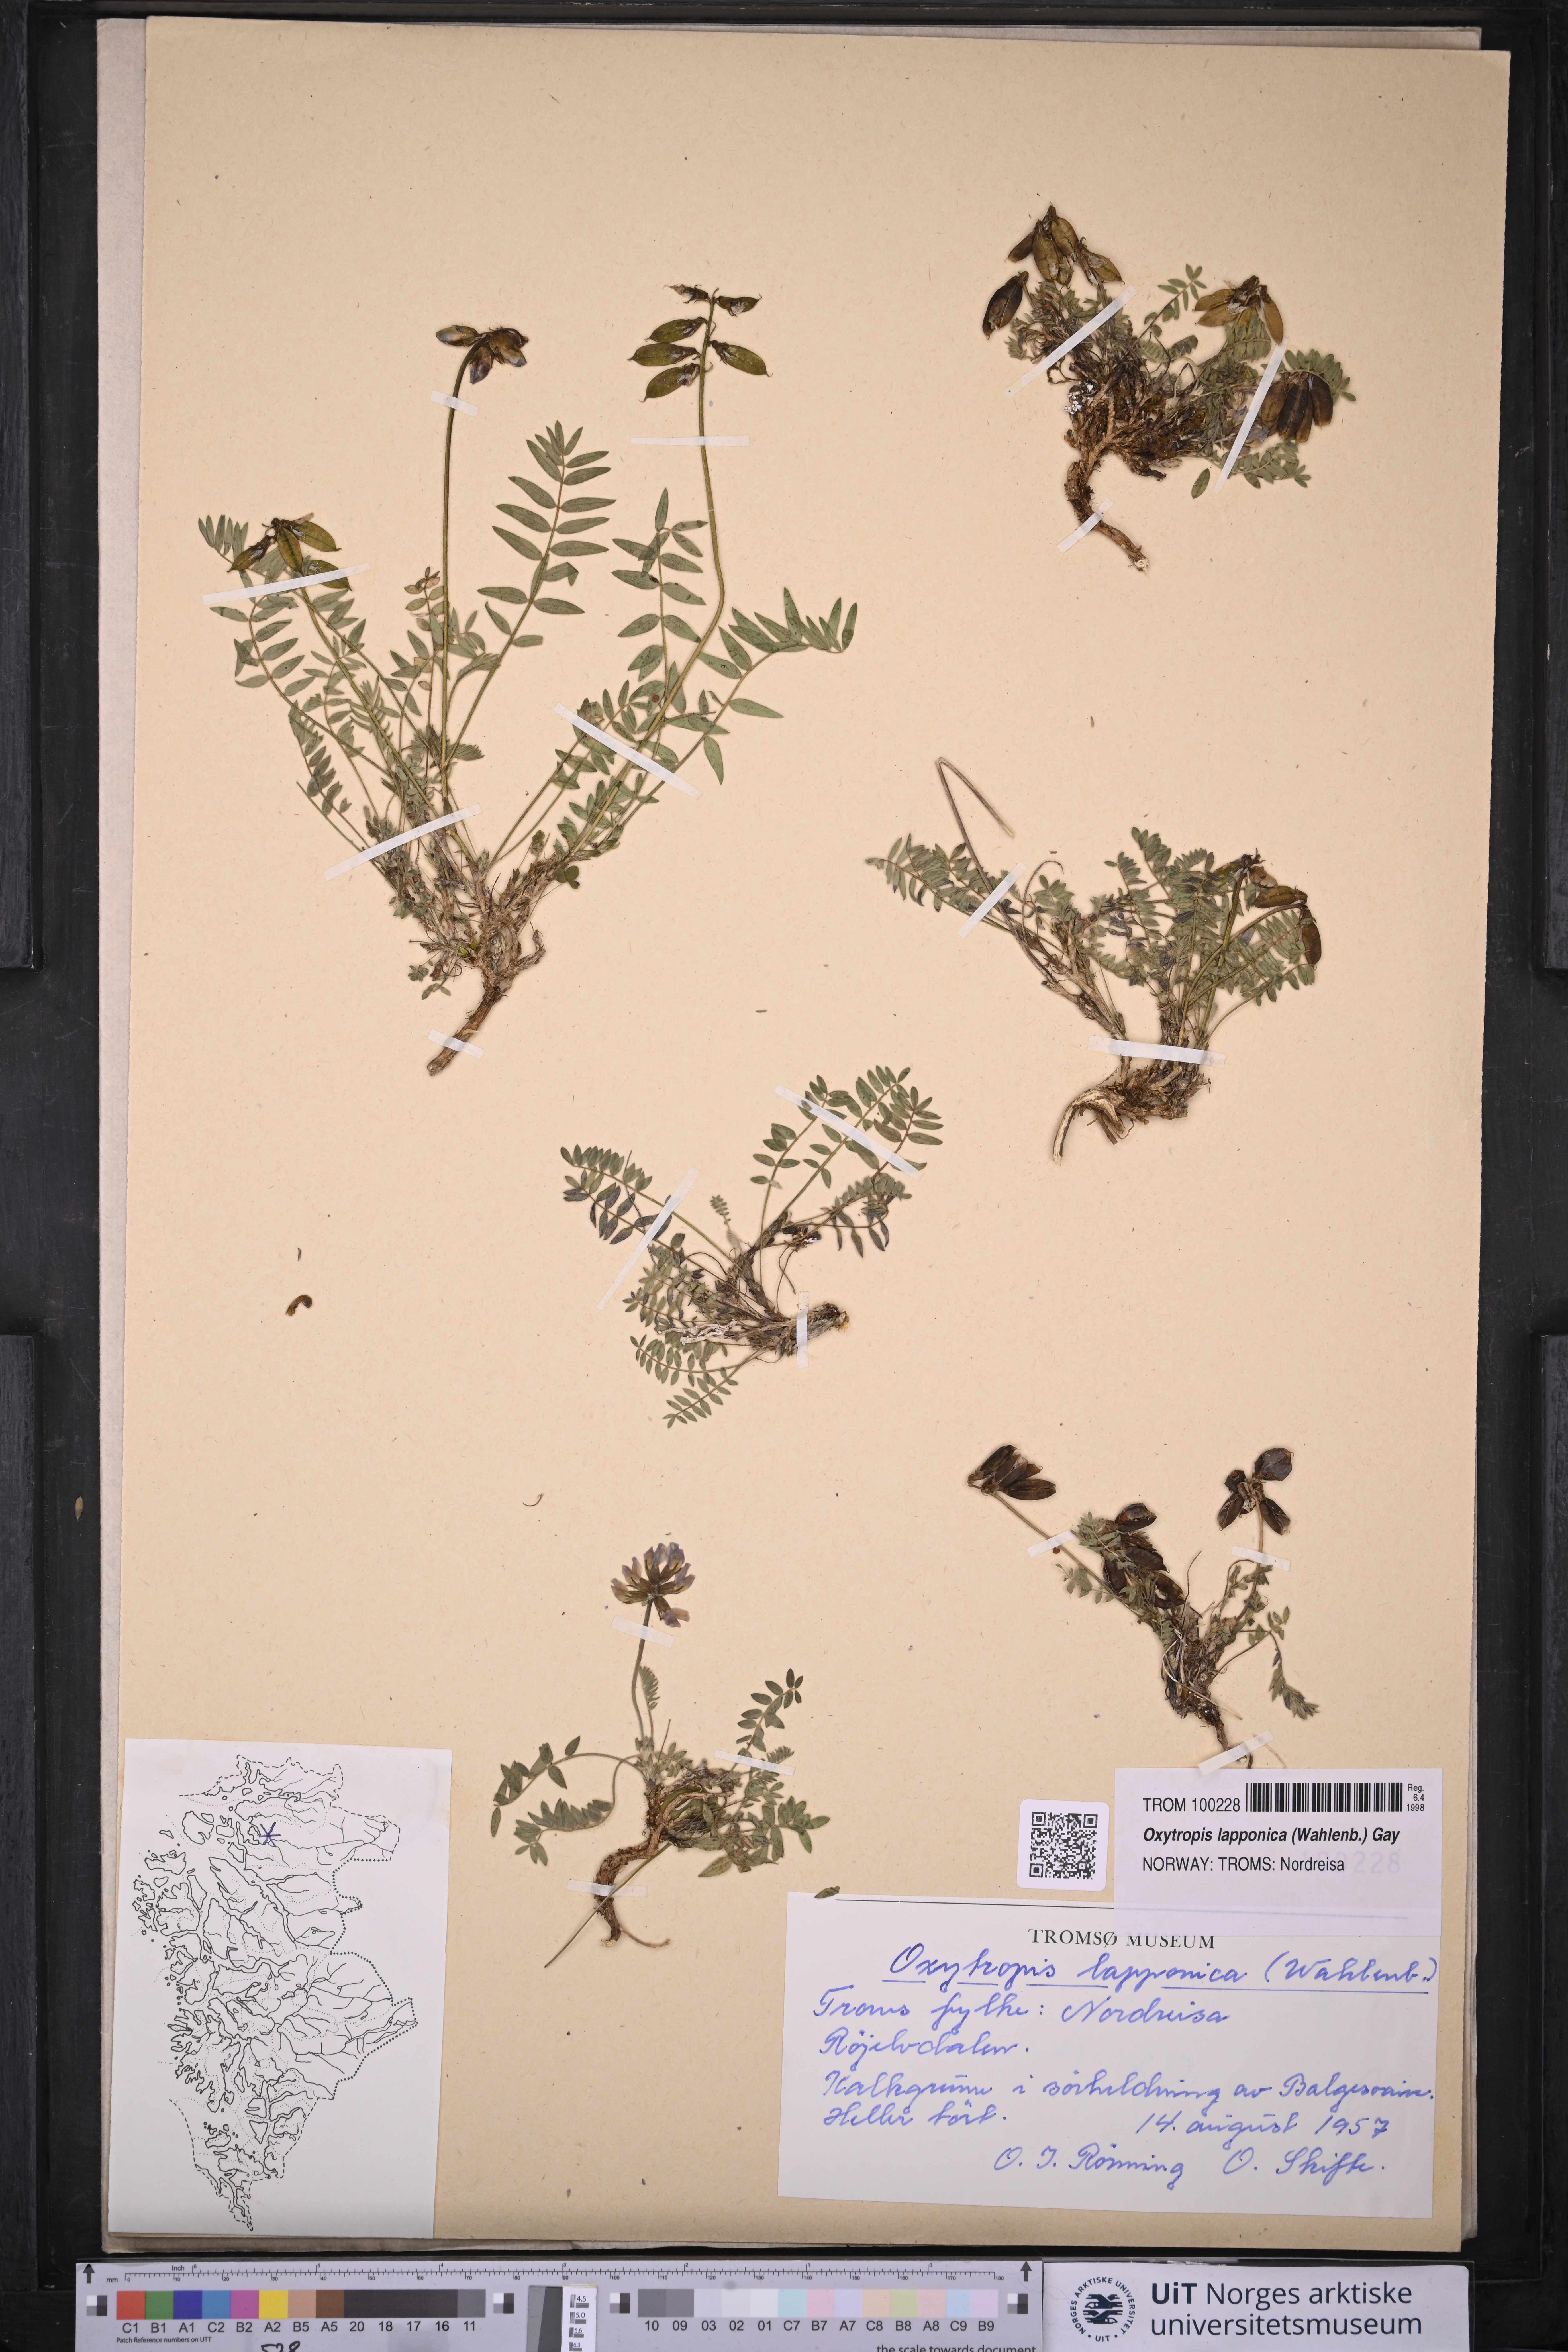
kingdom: Plantae
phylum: Tracheophyta
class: Magnoliopsida
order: Fabales
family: Fabaceae
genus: Oxytropis
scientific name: Oxytropis lapponica
